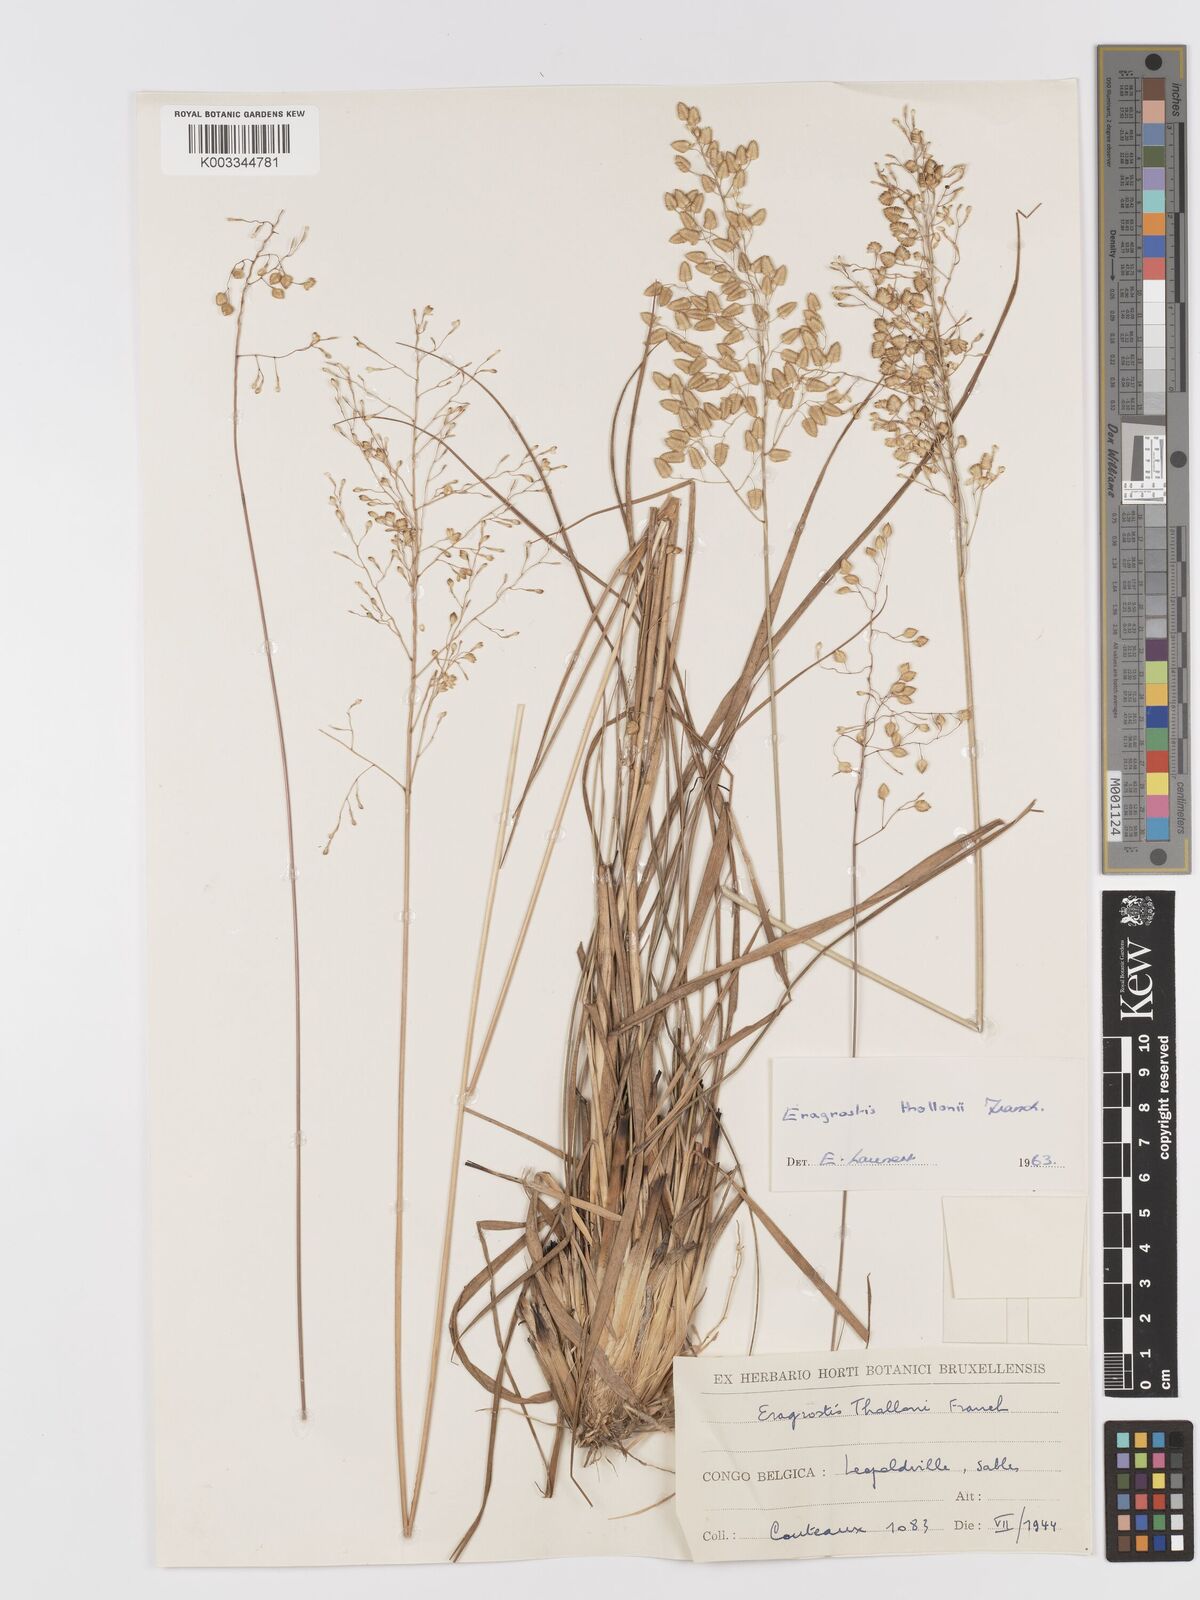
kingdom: Plantae
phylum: Tracheophyta
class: Liliopsida
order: Poales
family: Poaceae
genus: Eragrostis
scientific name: Eragrostis thollonii
